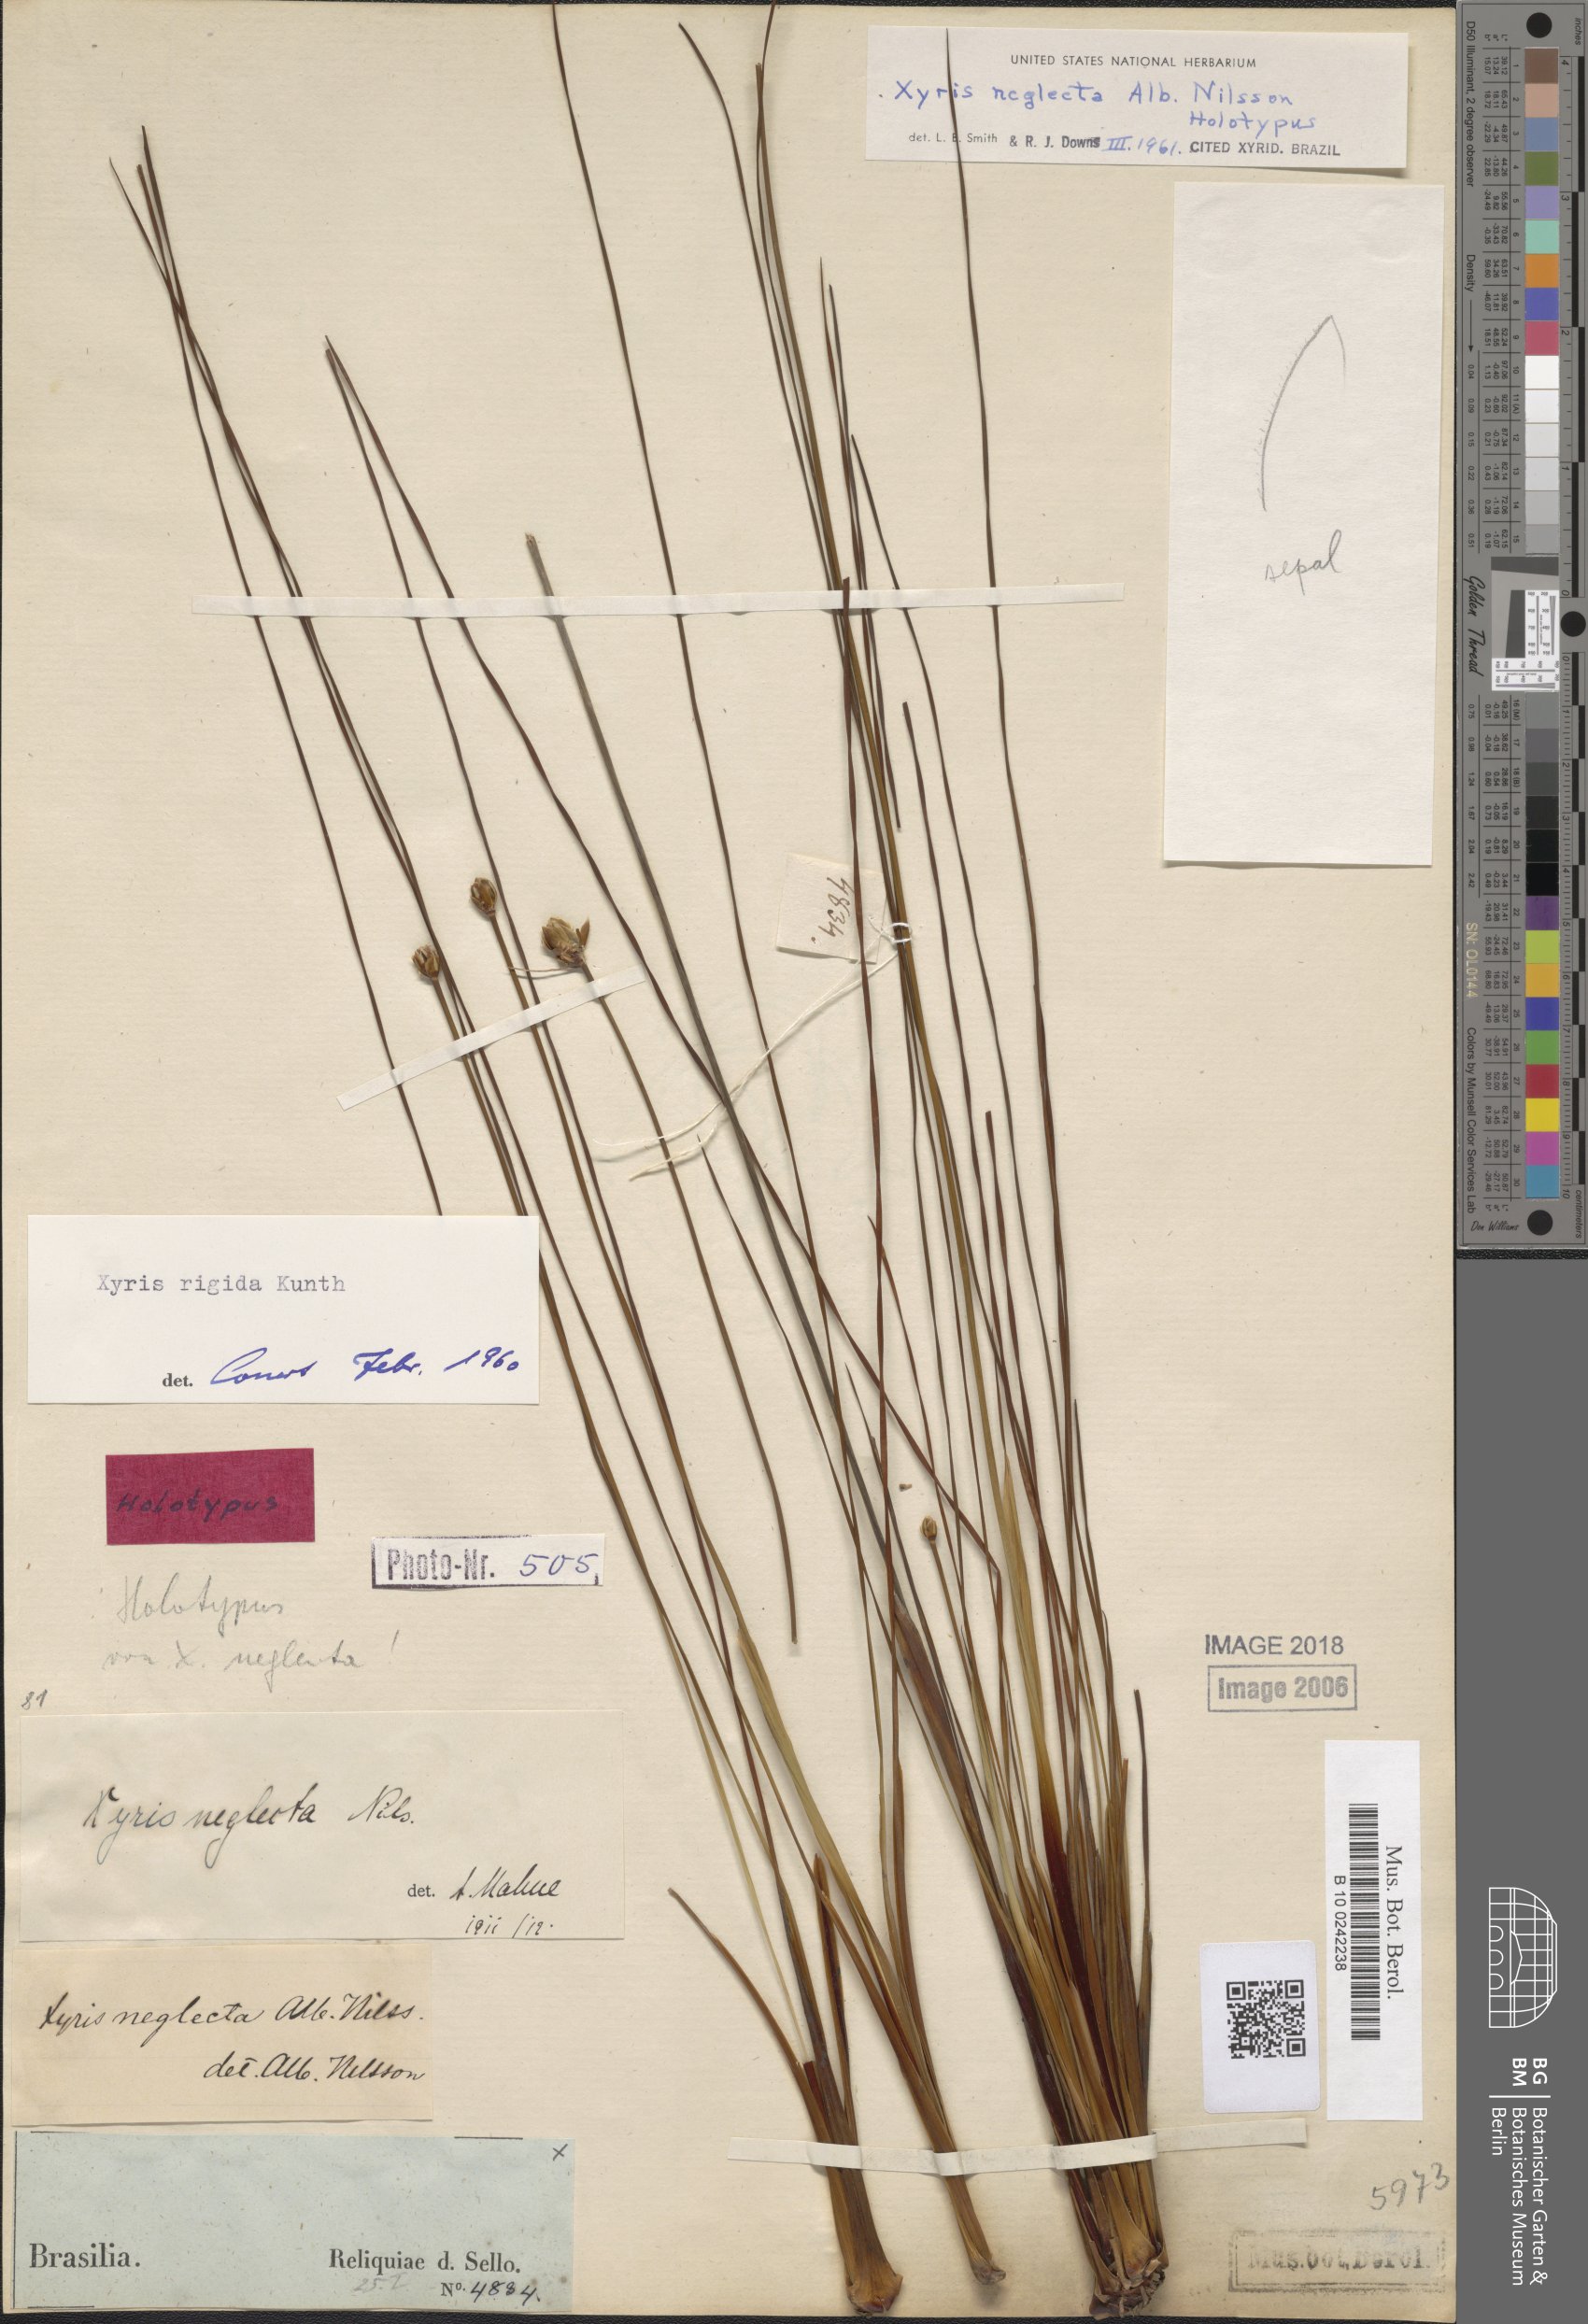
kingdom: Plantae
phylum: Tracheophyta
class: Liliopsida
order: Poales
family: Xyridaceae
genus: Xyris
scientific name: Xyris neglecta
